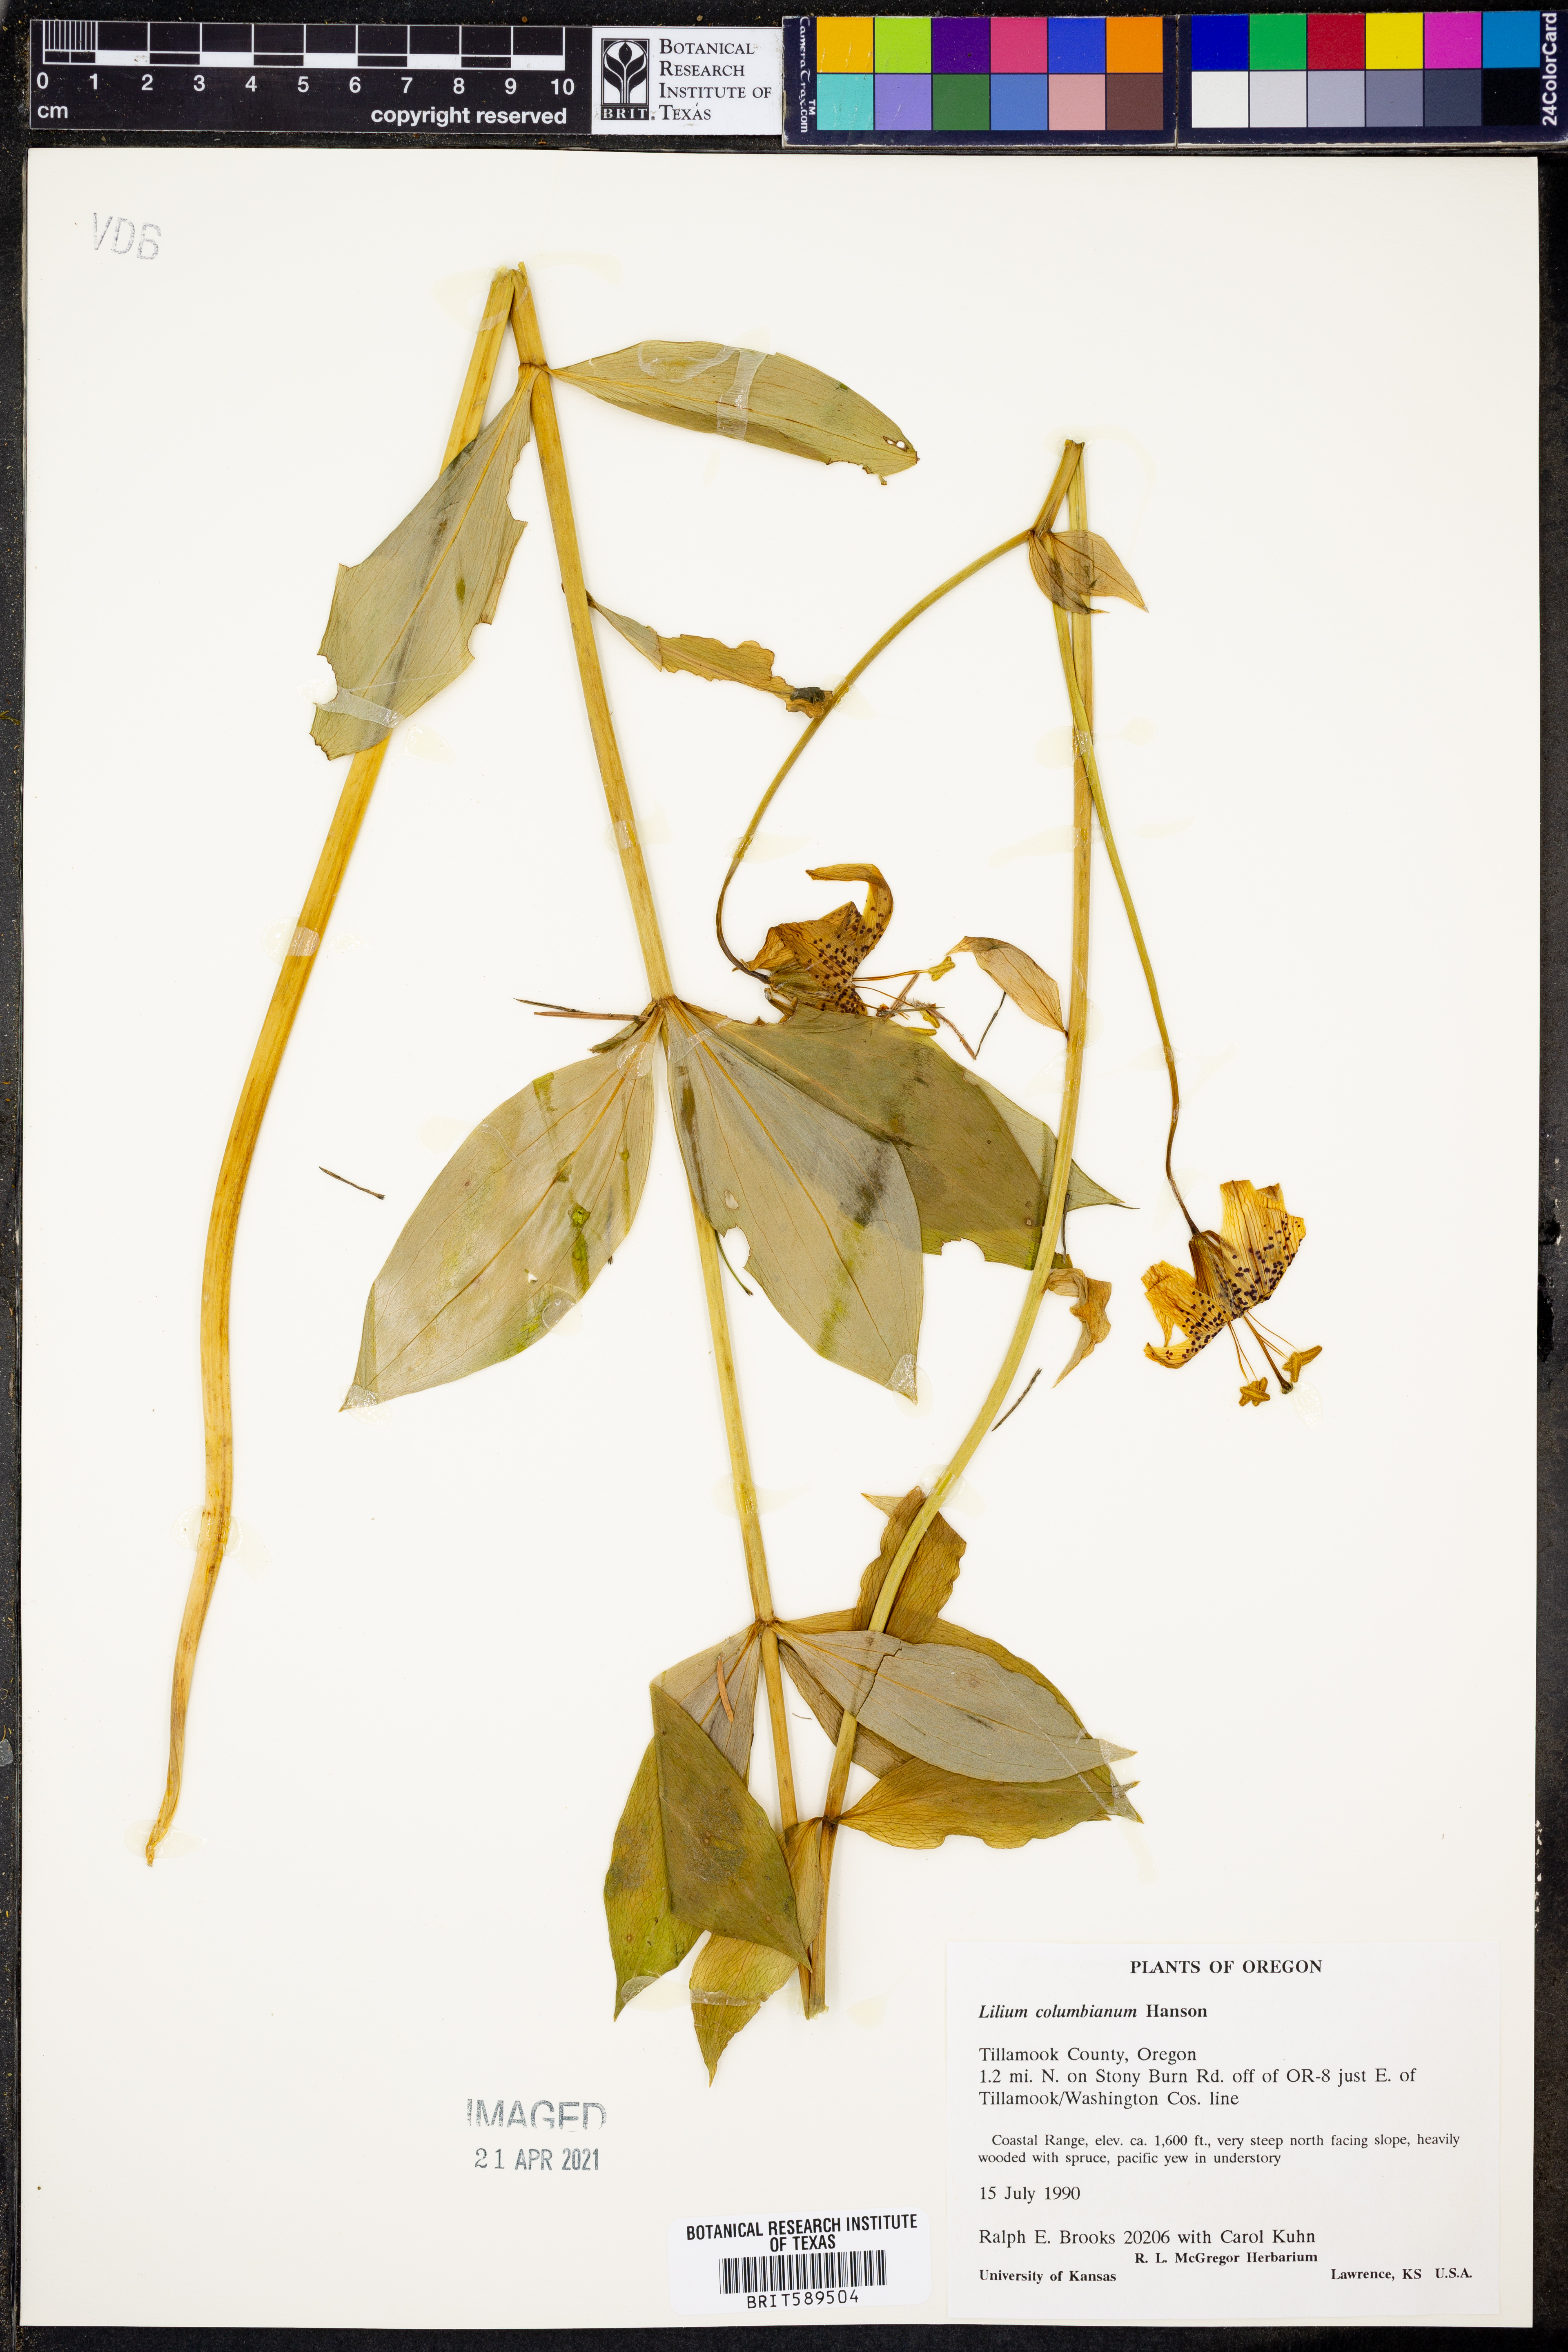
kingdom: Plantae
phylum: Tracheophyta
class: Liliopsida
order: Liliales
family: Liliaceae
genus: Lilium
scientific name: Lilium columbianum
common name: Columbia lily
